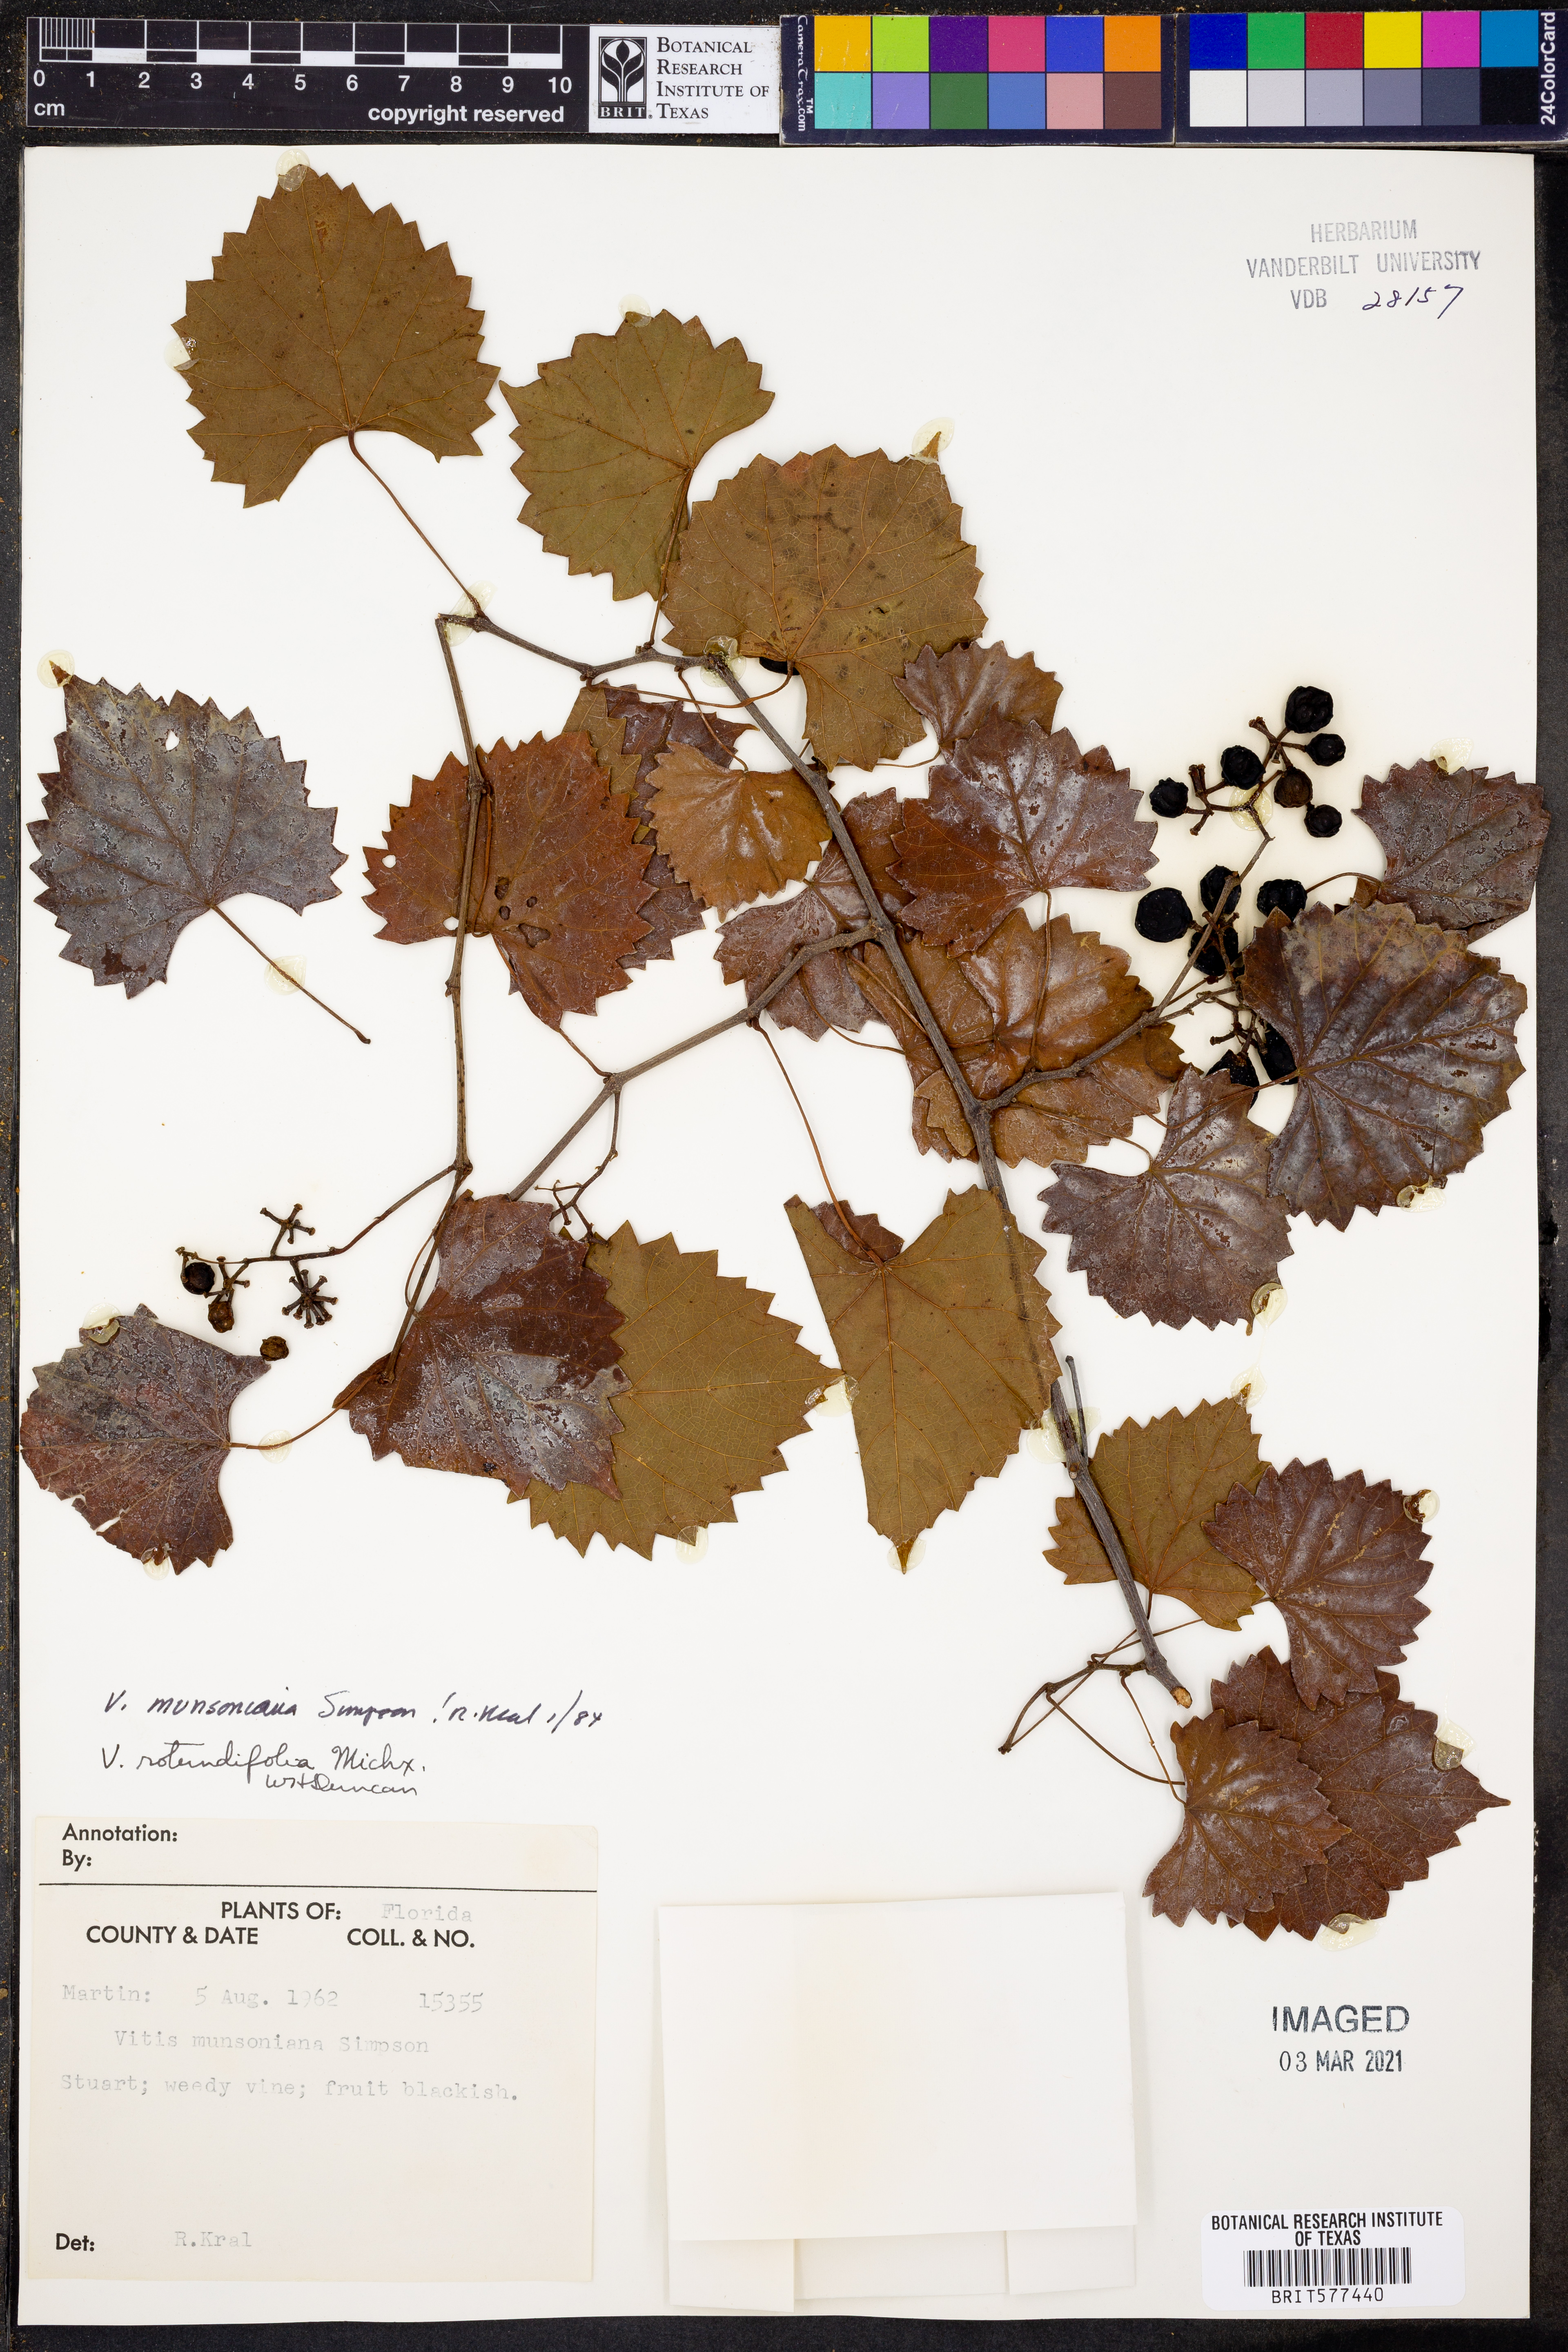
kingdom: Plantae
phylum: Tracheophyta
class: Magnoliopsida
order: Vitales
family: Vitaceae
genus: Vitis
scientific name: Vitis rotundifolia
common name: Muscadine grape
